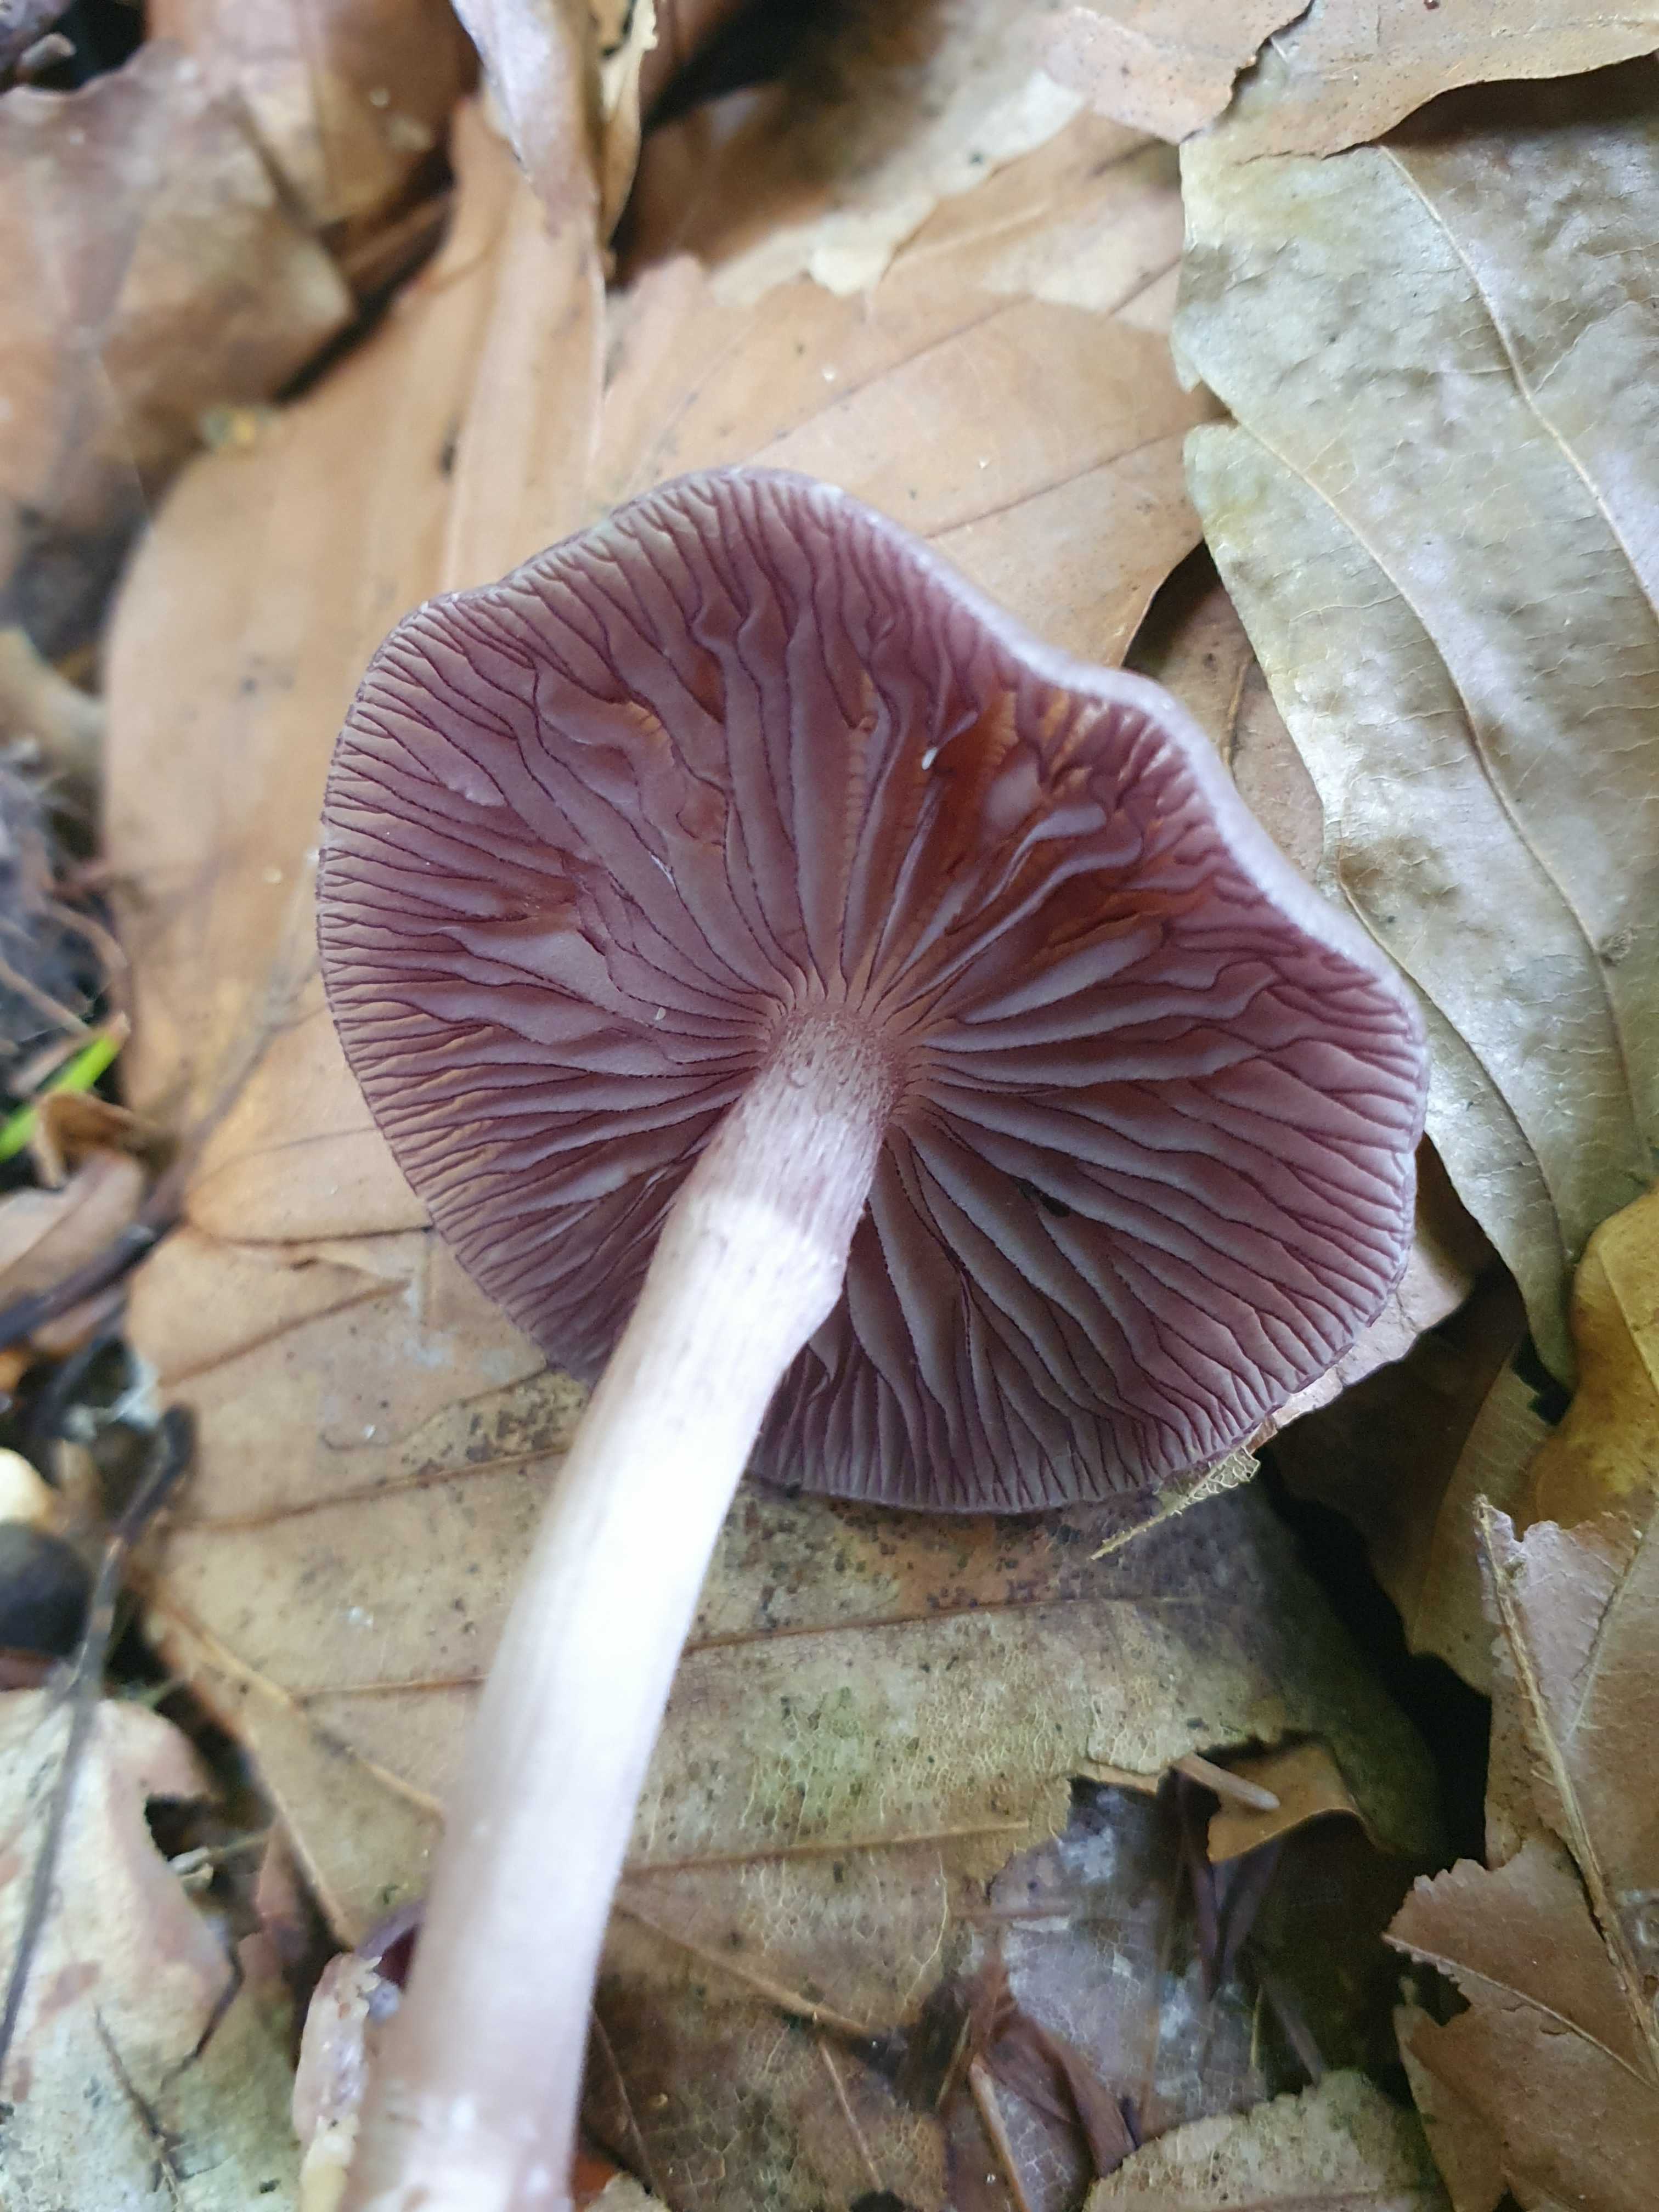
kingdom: Fungi
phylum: Basidiomycota
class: Agaricomycetes
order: Agaricales
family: Mycenaceae
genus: Mycena
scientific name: Mycena pelianthina
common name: mørkbladet huesvamp
